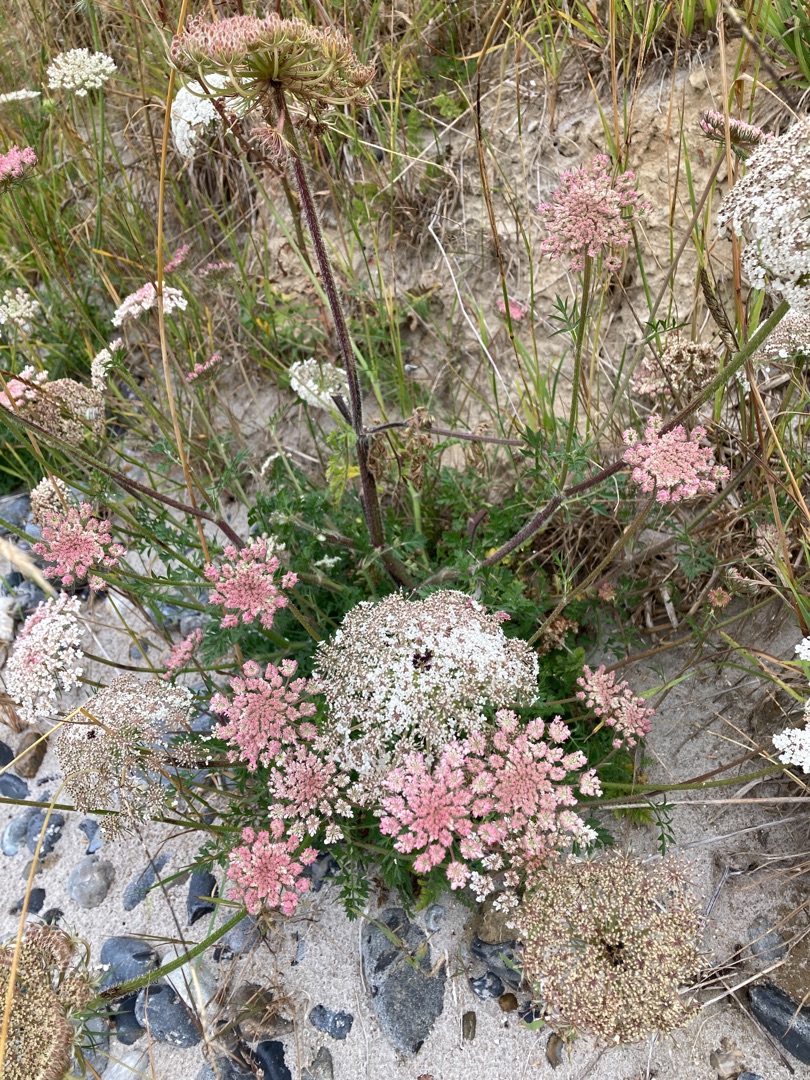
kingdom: Plantae
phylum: Tracheophyta
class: Magnoliopsida
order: Apiales
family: Apiaceae
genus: Daucus
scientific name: Daucus carota
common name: Gulerod
